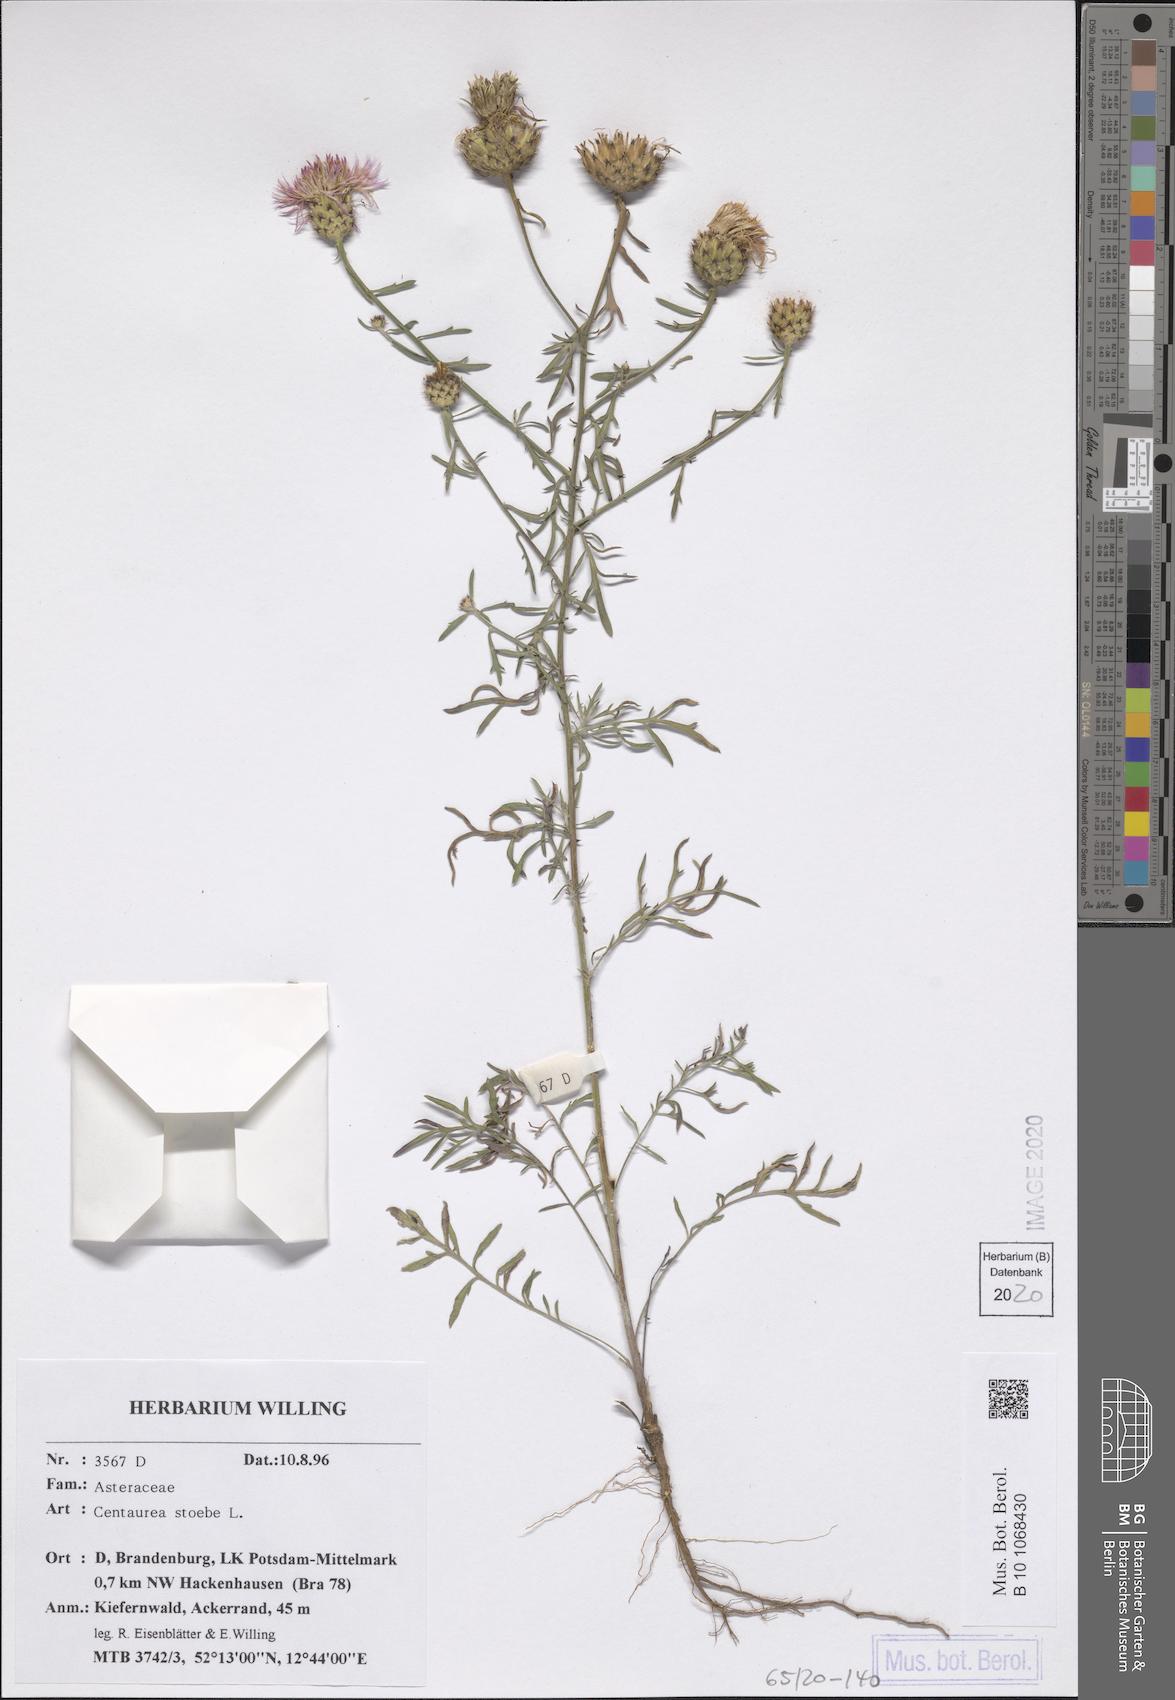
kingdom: Plantae
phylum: Tracheophyta
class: Magnoliopsida
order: Asterales
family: Asteraceae
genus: Centaurea
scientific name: Centaurea stoebe
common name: Spotted knapweed
